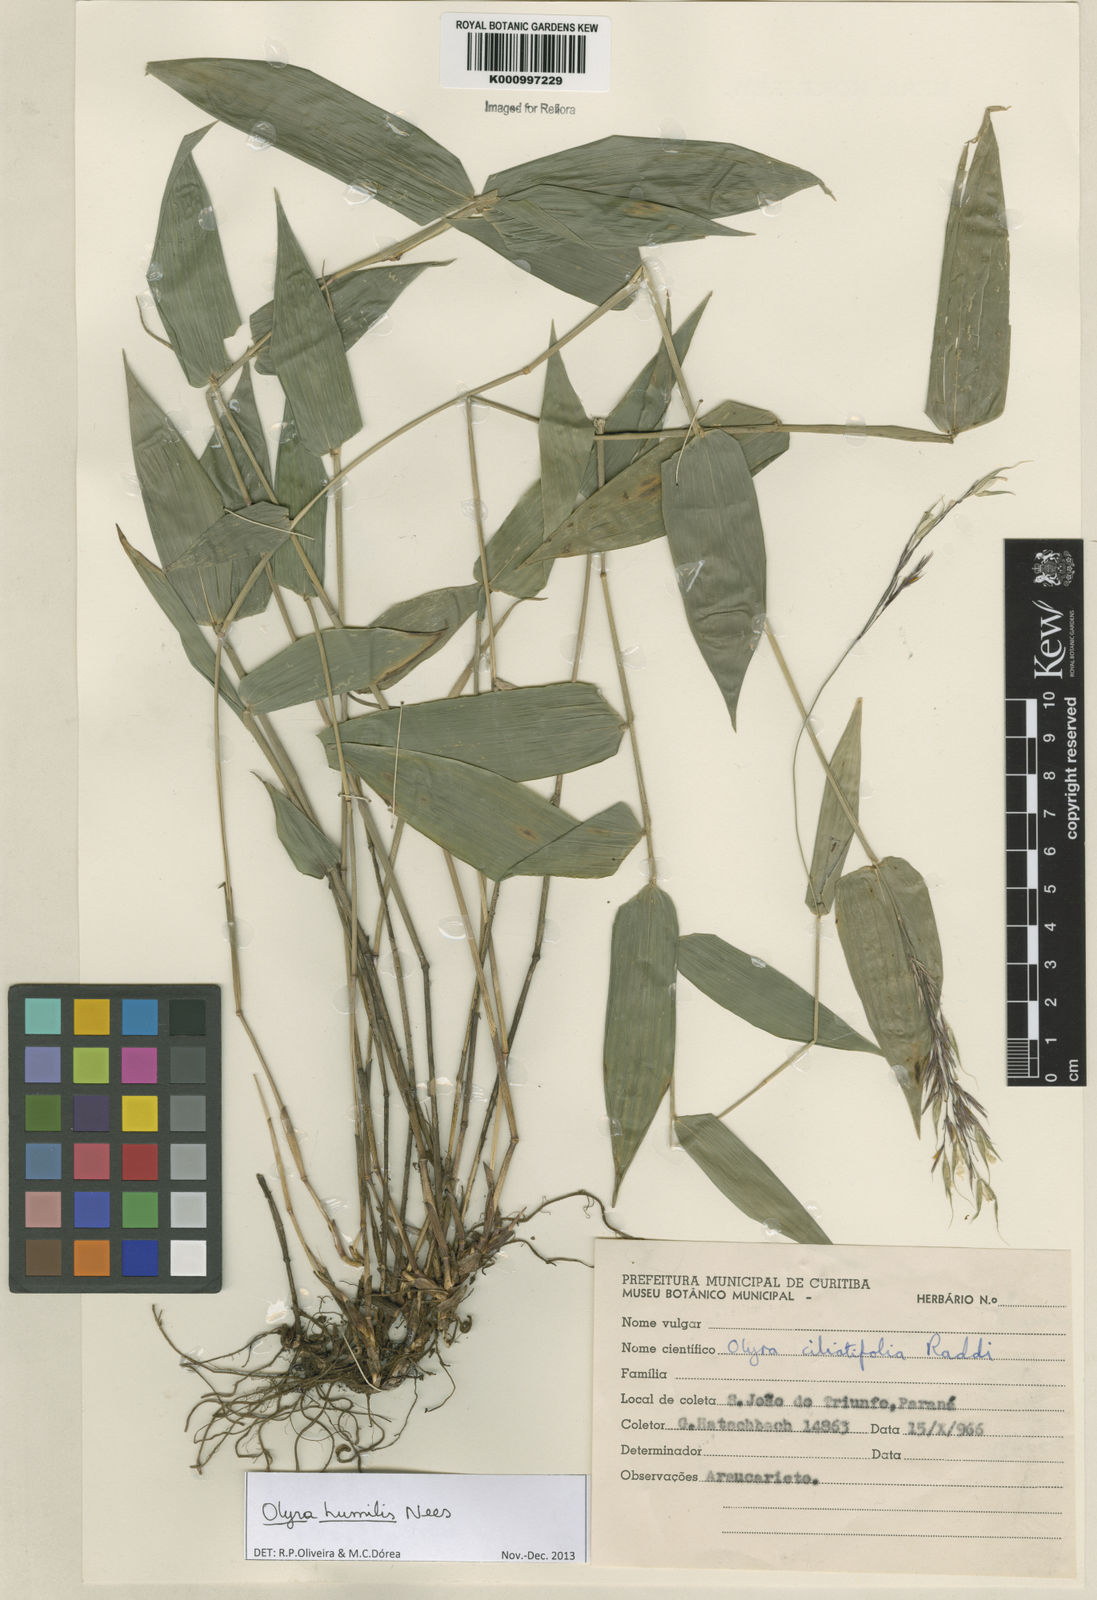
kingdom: Plantae
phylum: Tracheophyta
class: Liliopsida
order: Poales
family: Poaceae
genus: Olyra
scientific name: Olyra humilis
